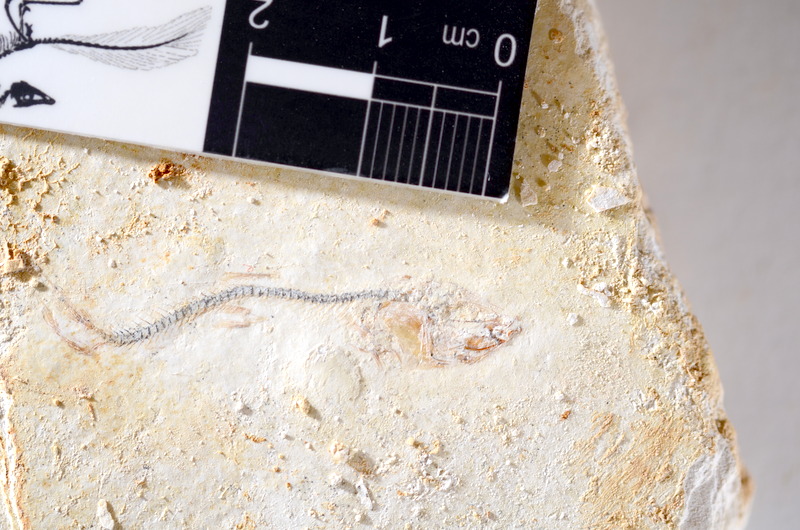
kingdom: Animalia
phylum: Chordata
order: Salmoniformes
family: Orthogonikleithridae
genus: Orthogonikleithrus
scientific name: Orthogonikleithrus hoelli
